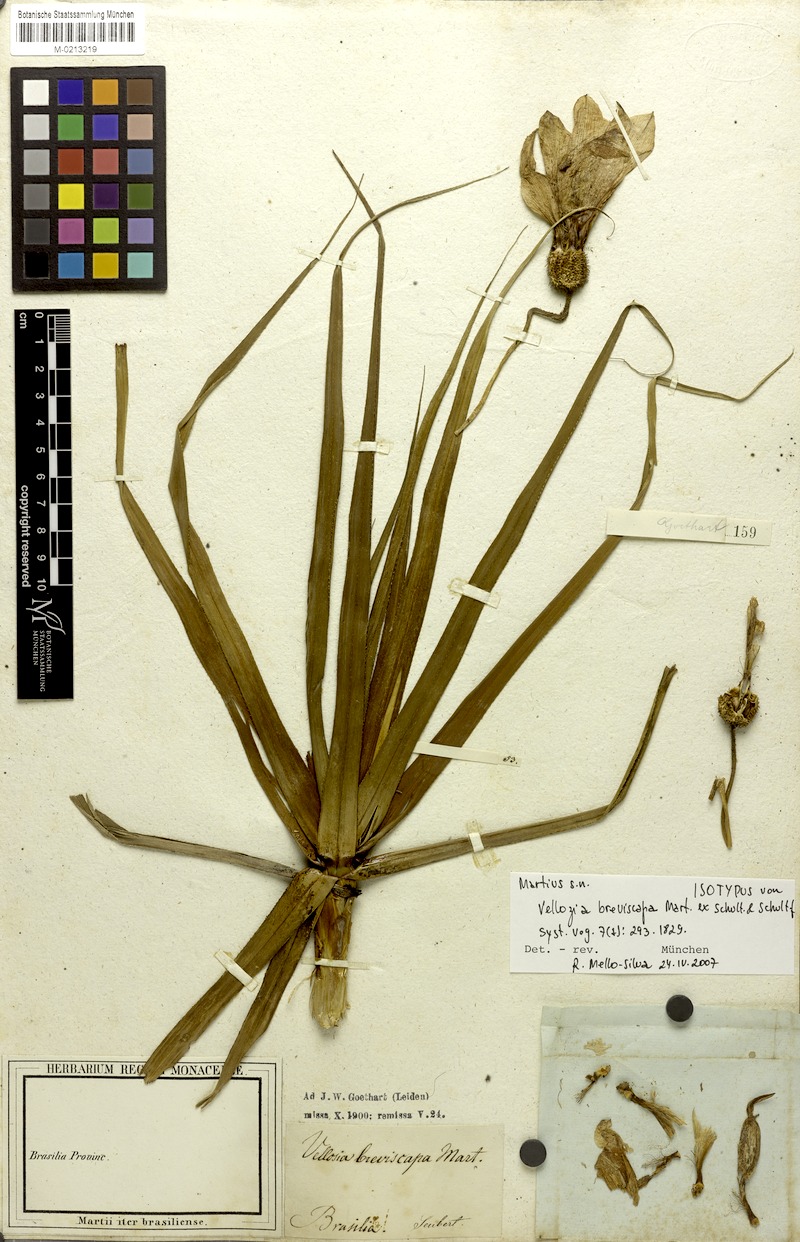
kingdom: Plantae
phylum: Tracheophyta
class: Liliopsida
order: Pandanales
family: Velloziaceae
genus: Vellozia
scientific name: Vellozia breviscapa
